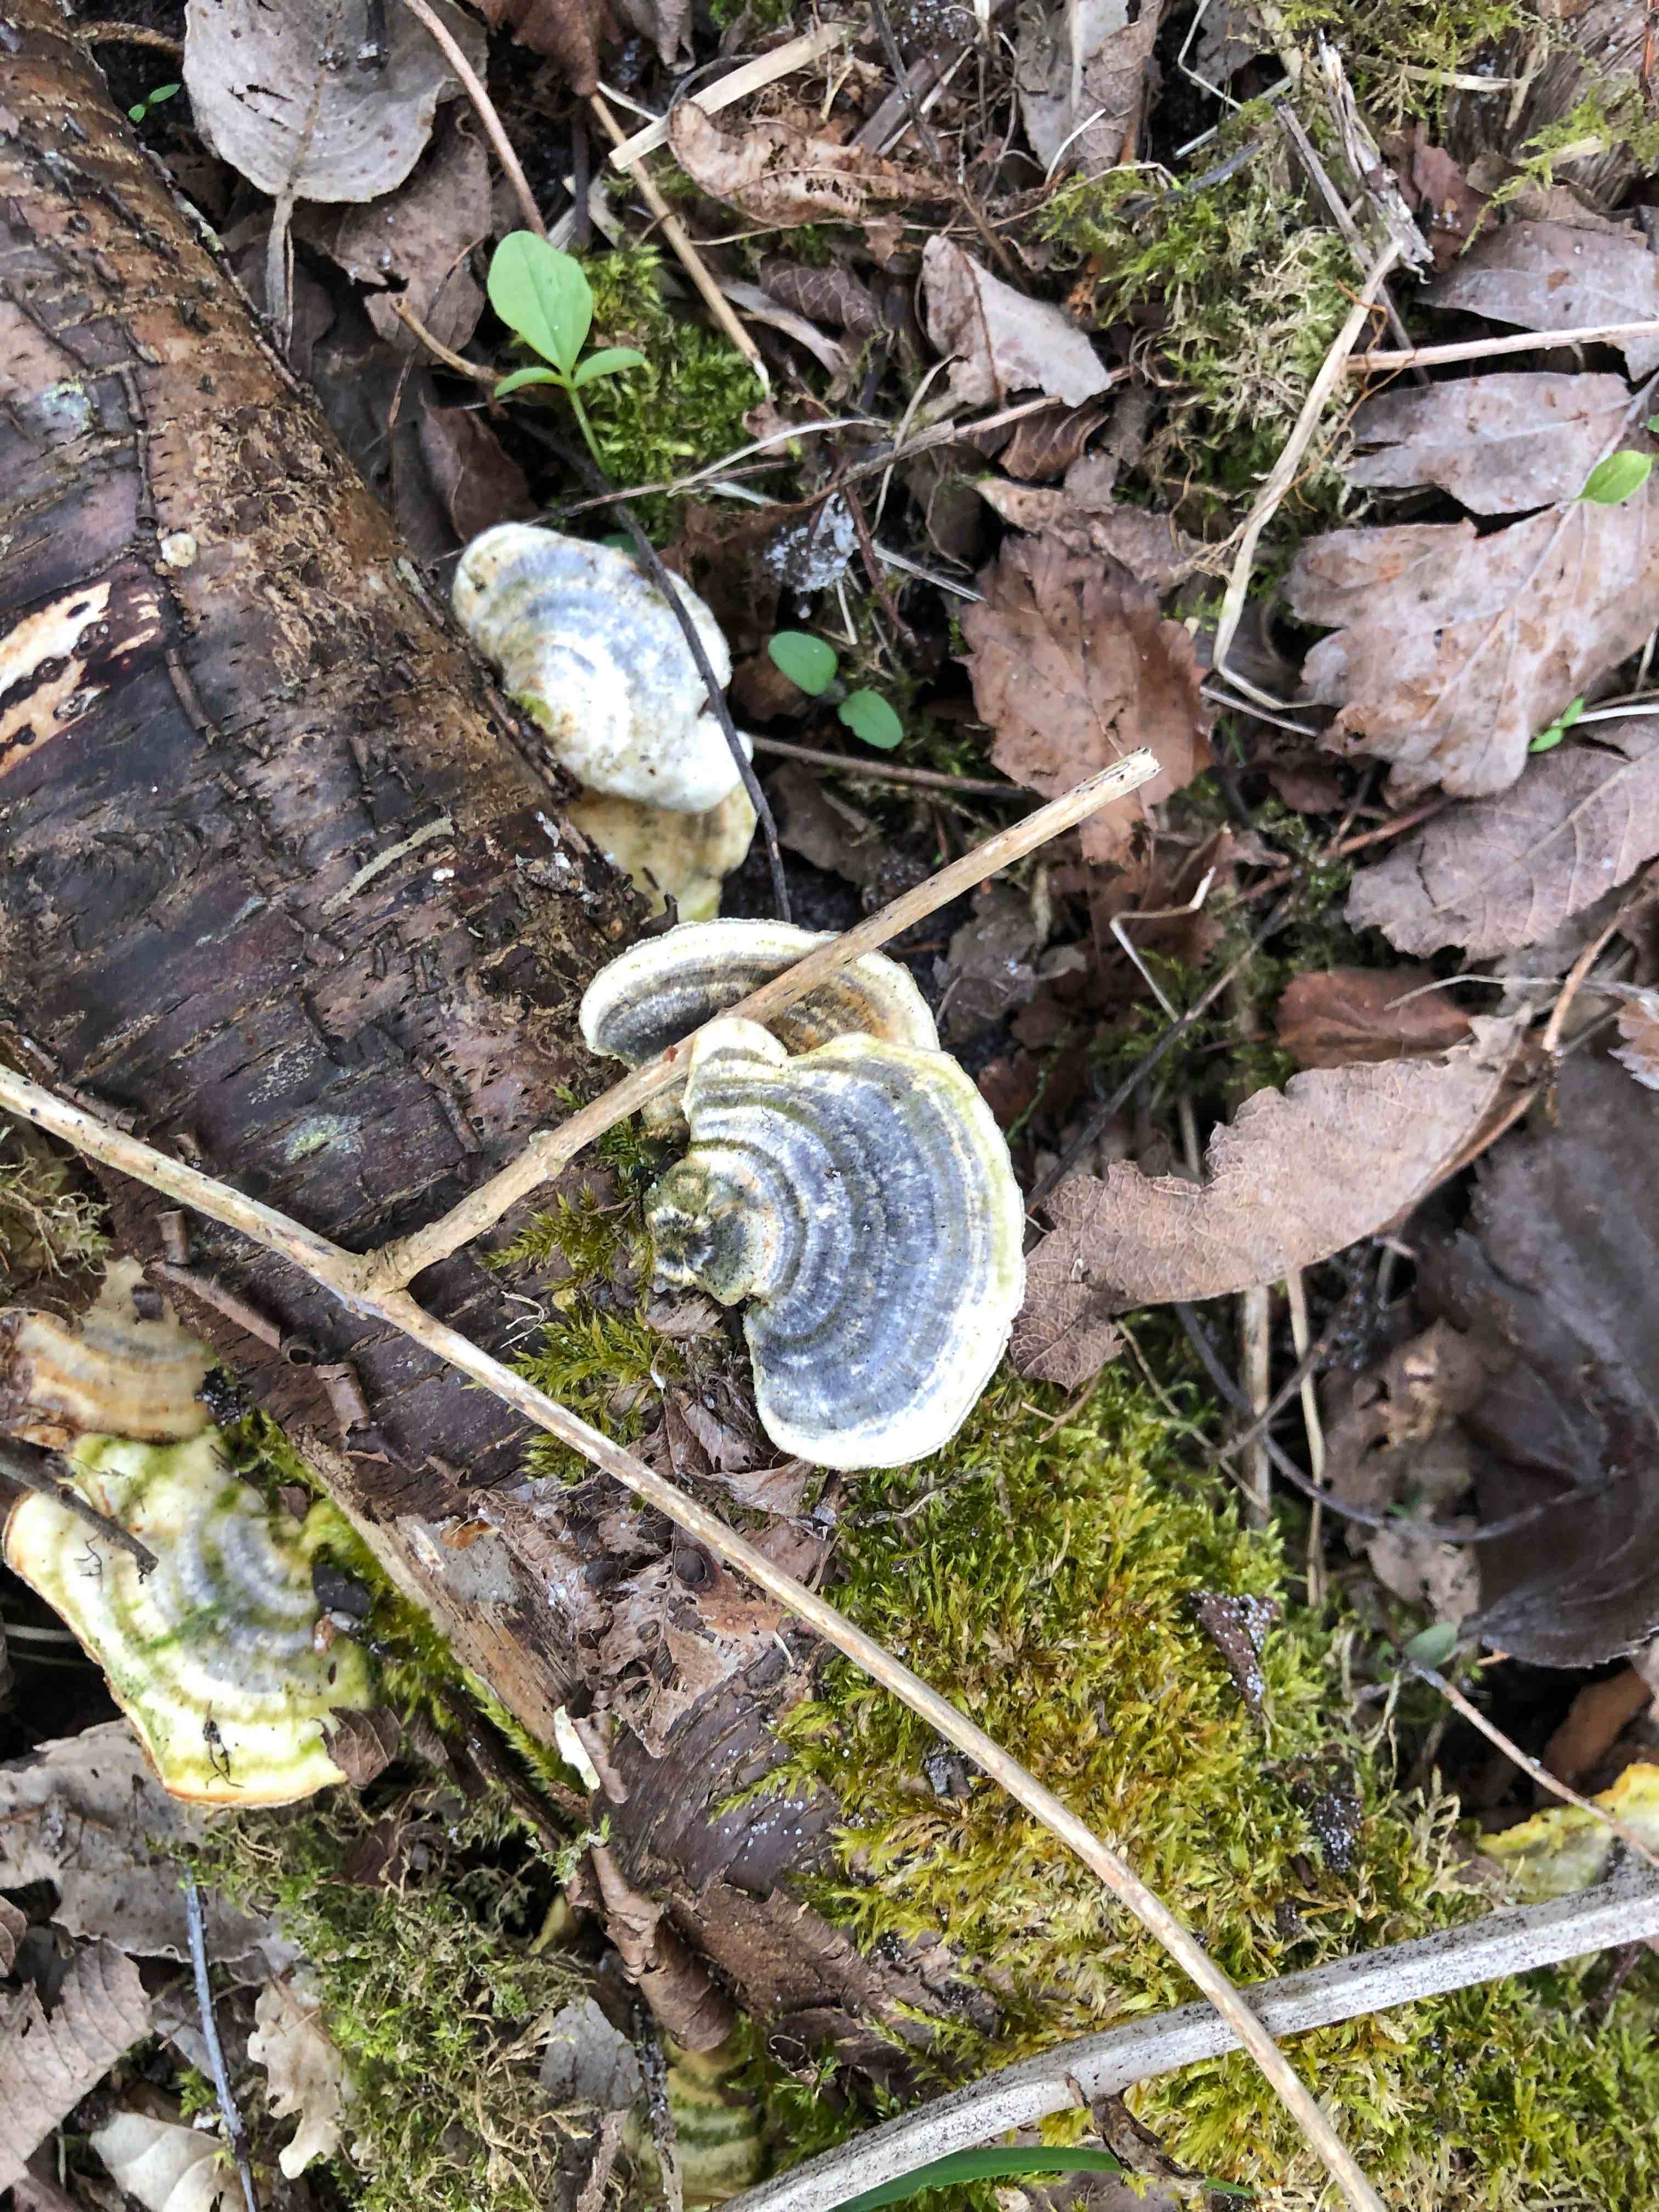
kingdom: Fungi
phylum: Basidiomycota
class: Agaricomycetes
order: Polyporales
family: Polyporaceae
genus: Trametes
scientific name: Trametes versicolor
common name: broget læderporesvamp
